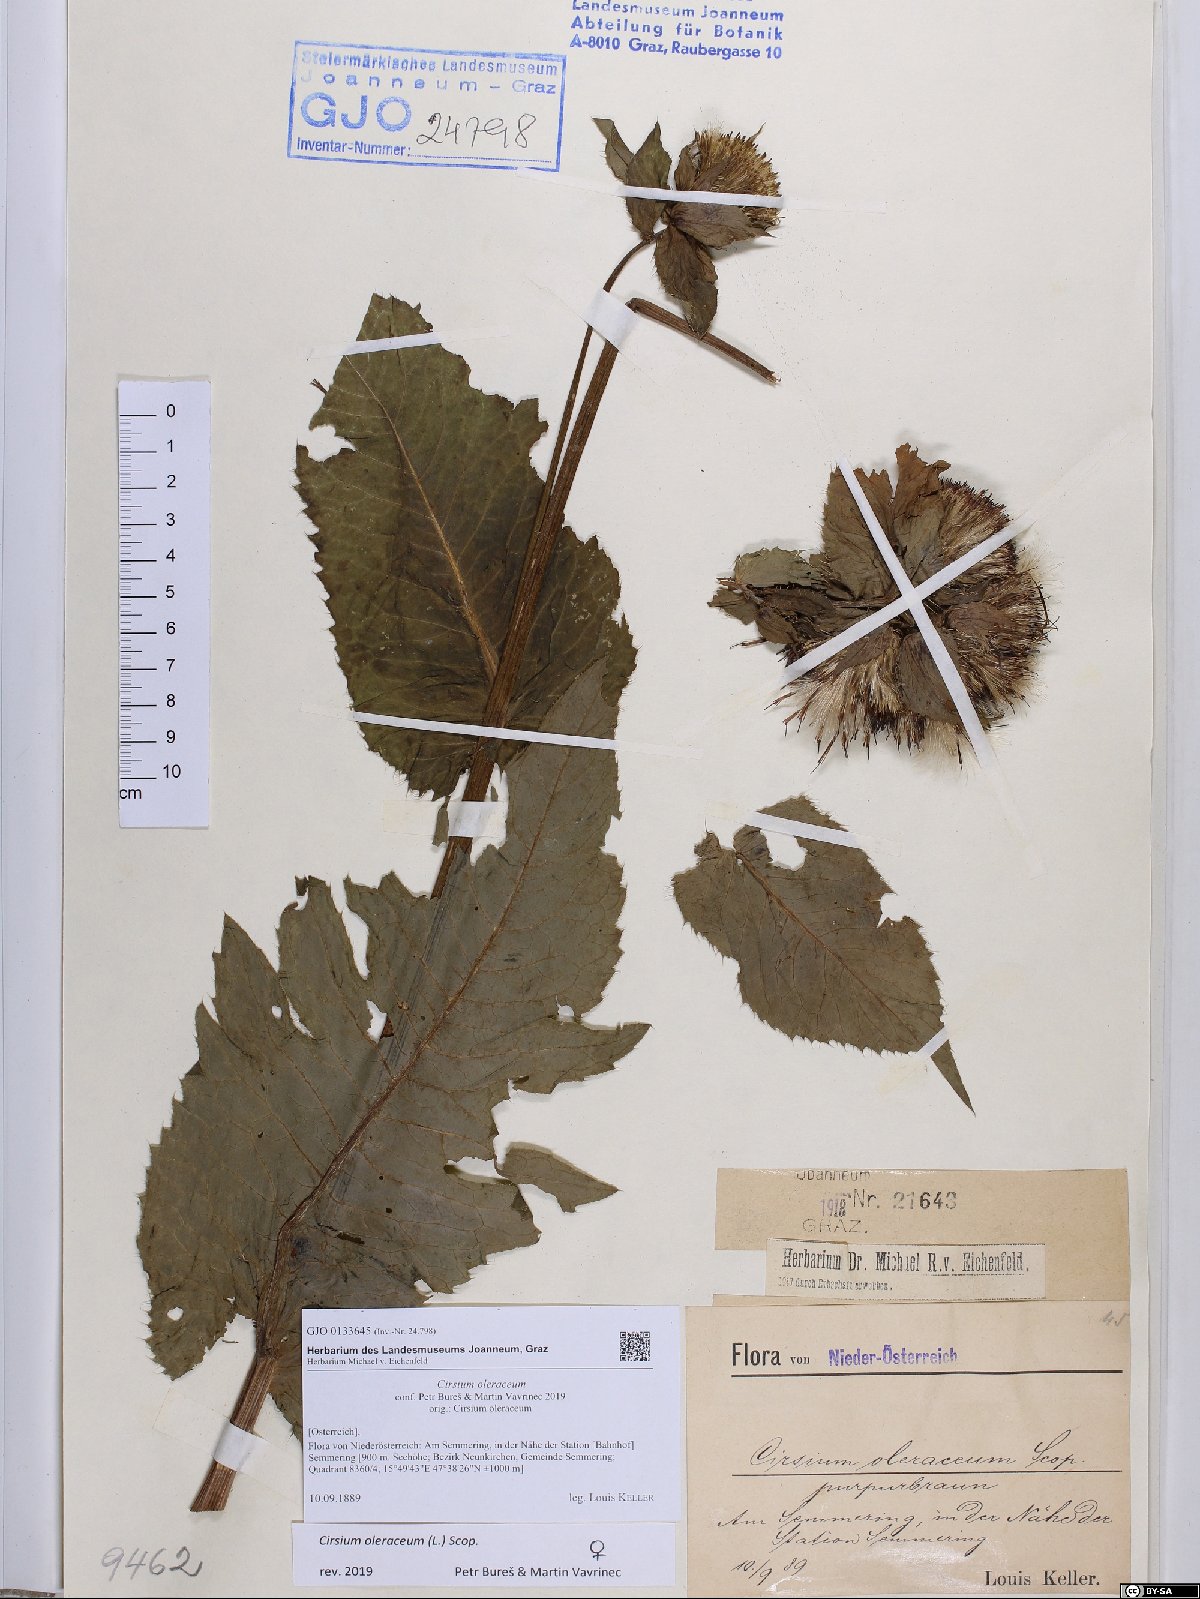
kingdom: Plantae
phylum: Tracheophyta
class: Magnoliopsida
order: Asterales
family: Asteraceae
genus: Cirsium
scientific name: Cirsium oleraceum
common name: Cabbage thistle
